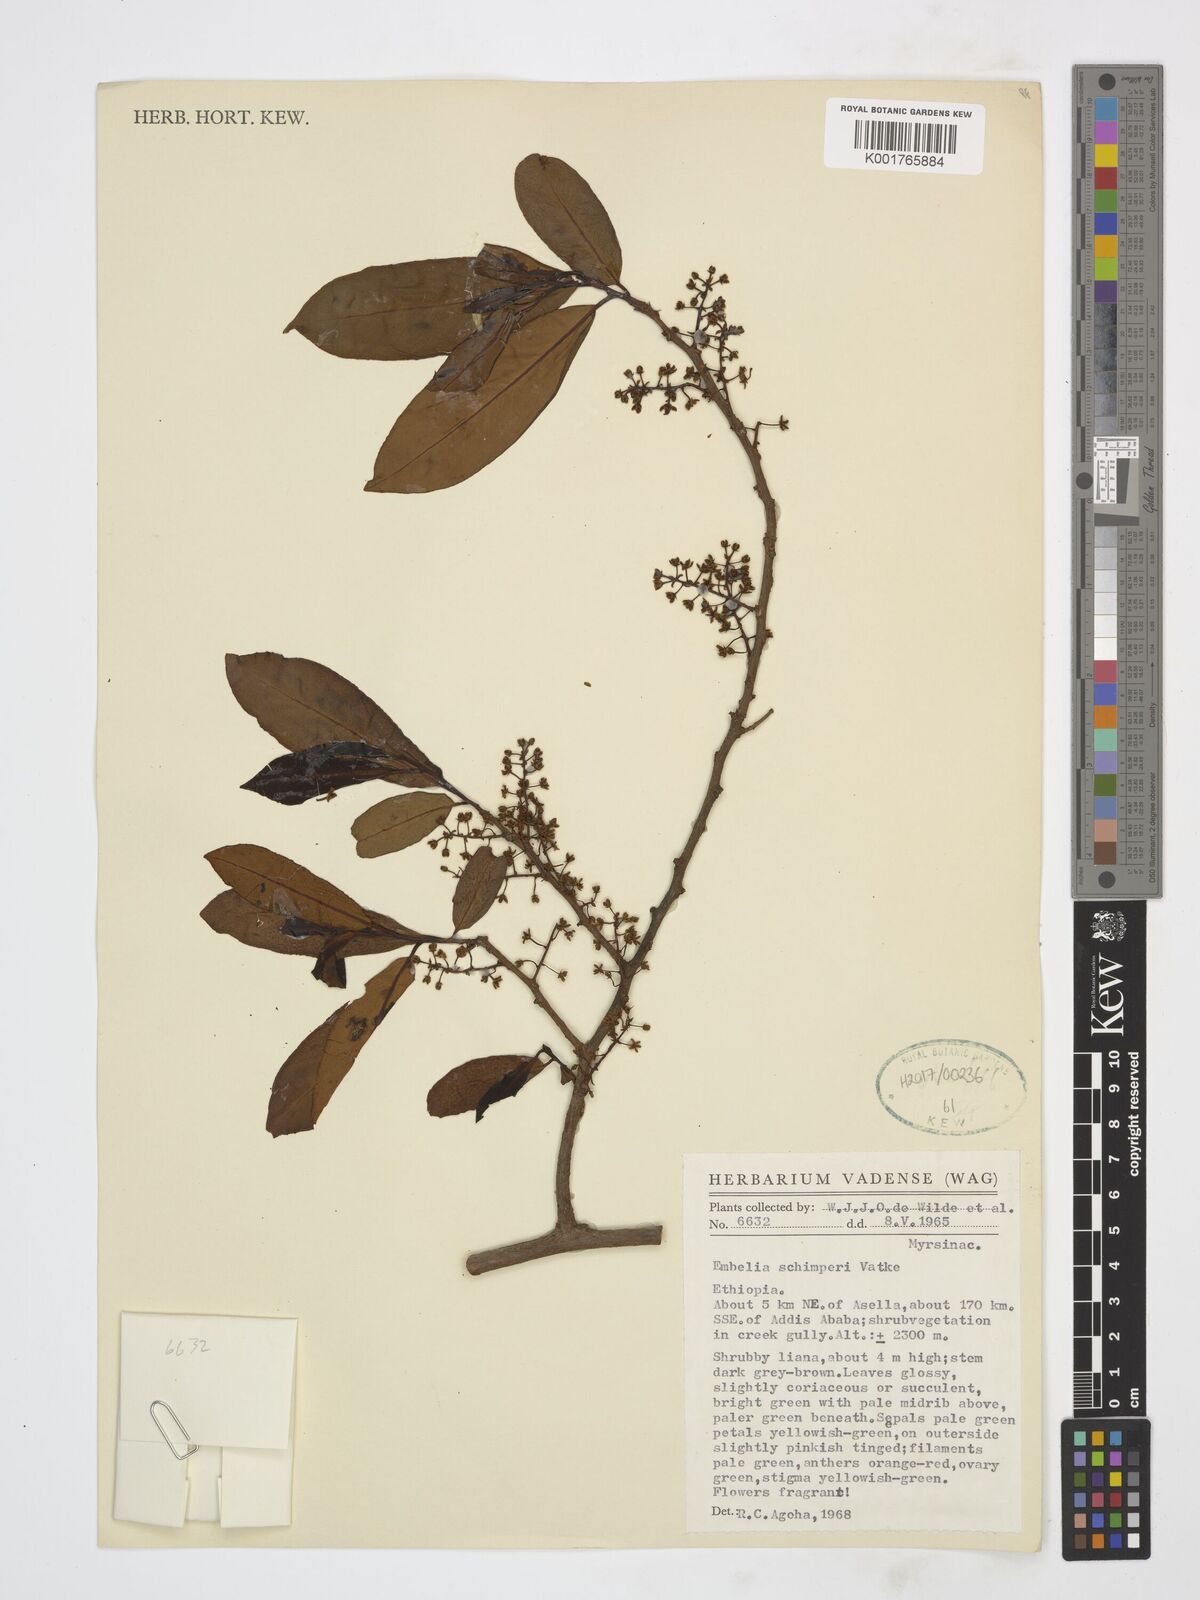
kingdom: Plantae
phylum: Tracheophyta
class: Magnoliopsida
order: Ericales
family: Primulaceae
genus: Embelia
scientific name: Embelia schimperi
